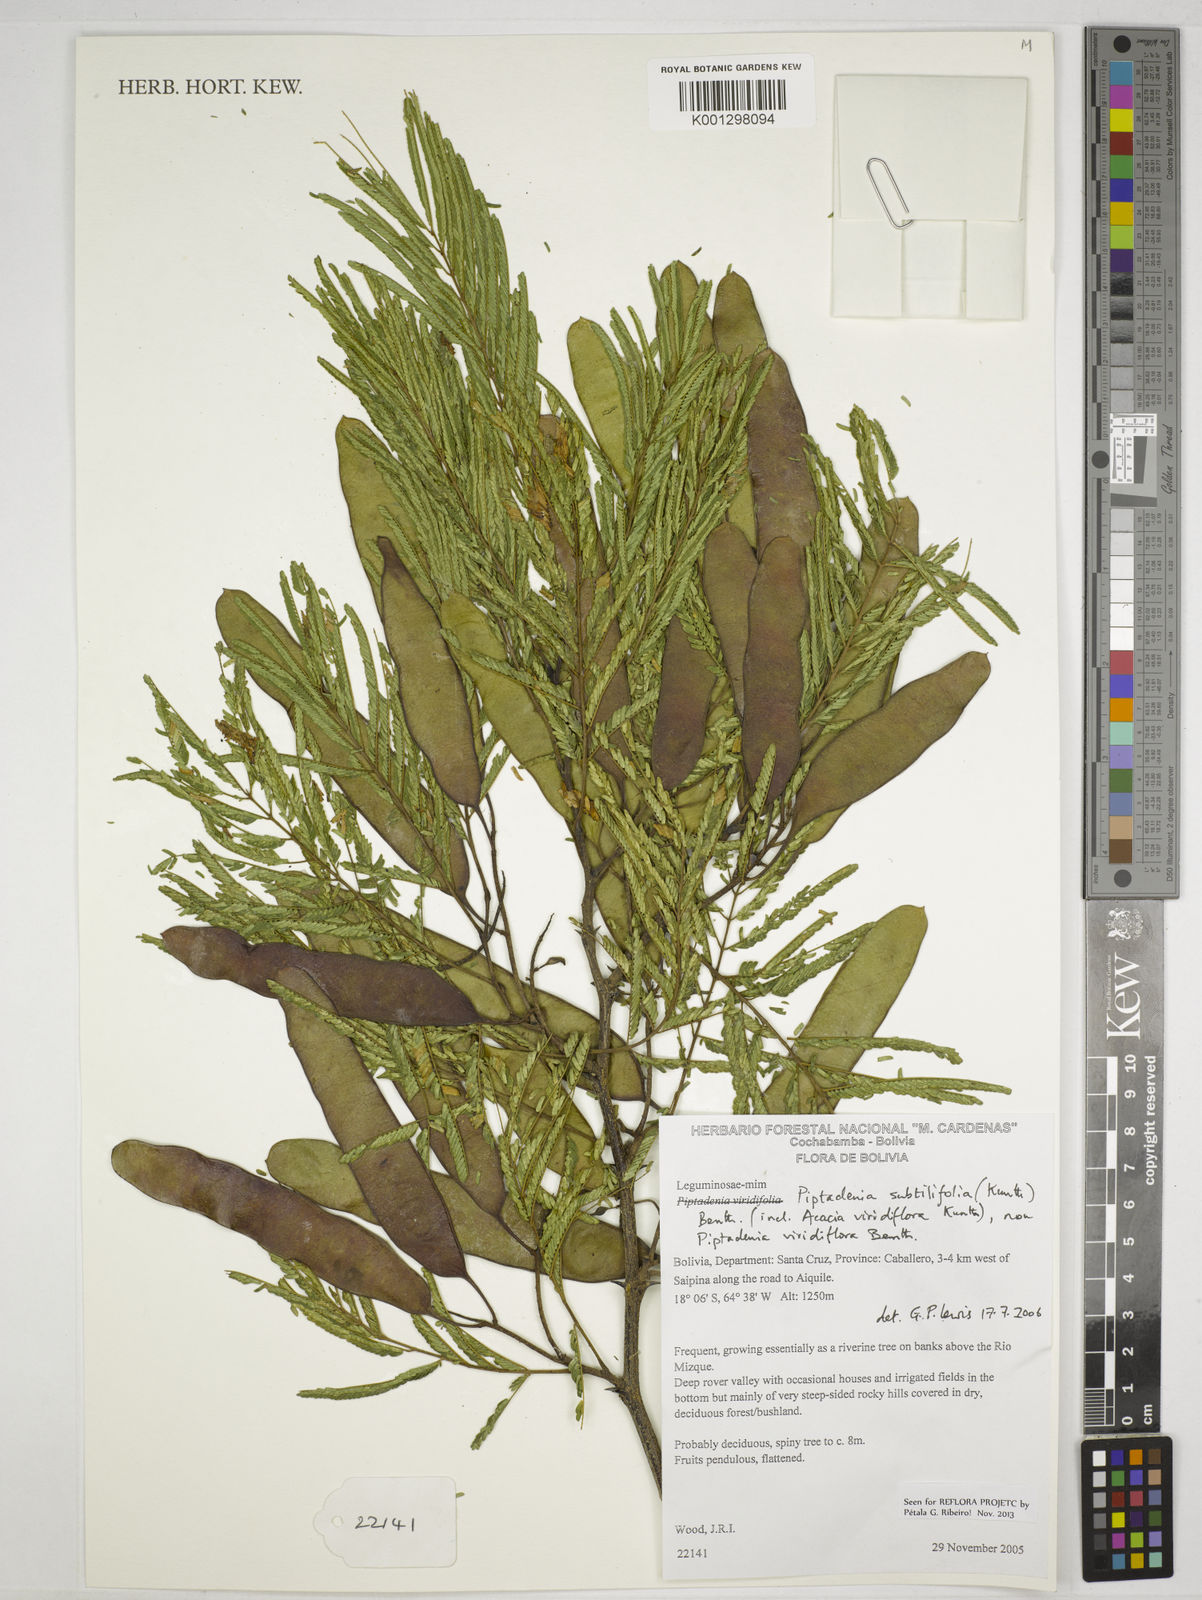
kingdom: Plantae
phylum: Tracheophyta
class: Magnoliopsida
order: Fabales
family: Fabaceae
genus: Lachesiodendron
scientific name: Lachesiodendron viridiflorum
